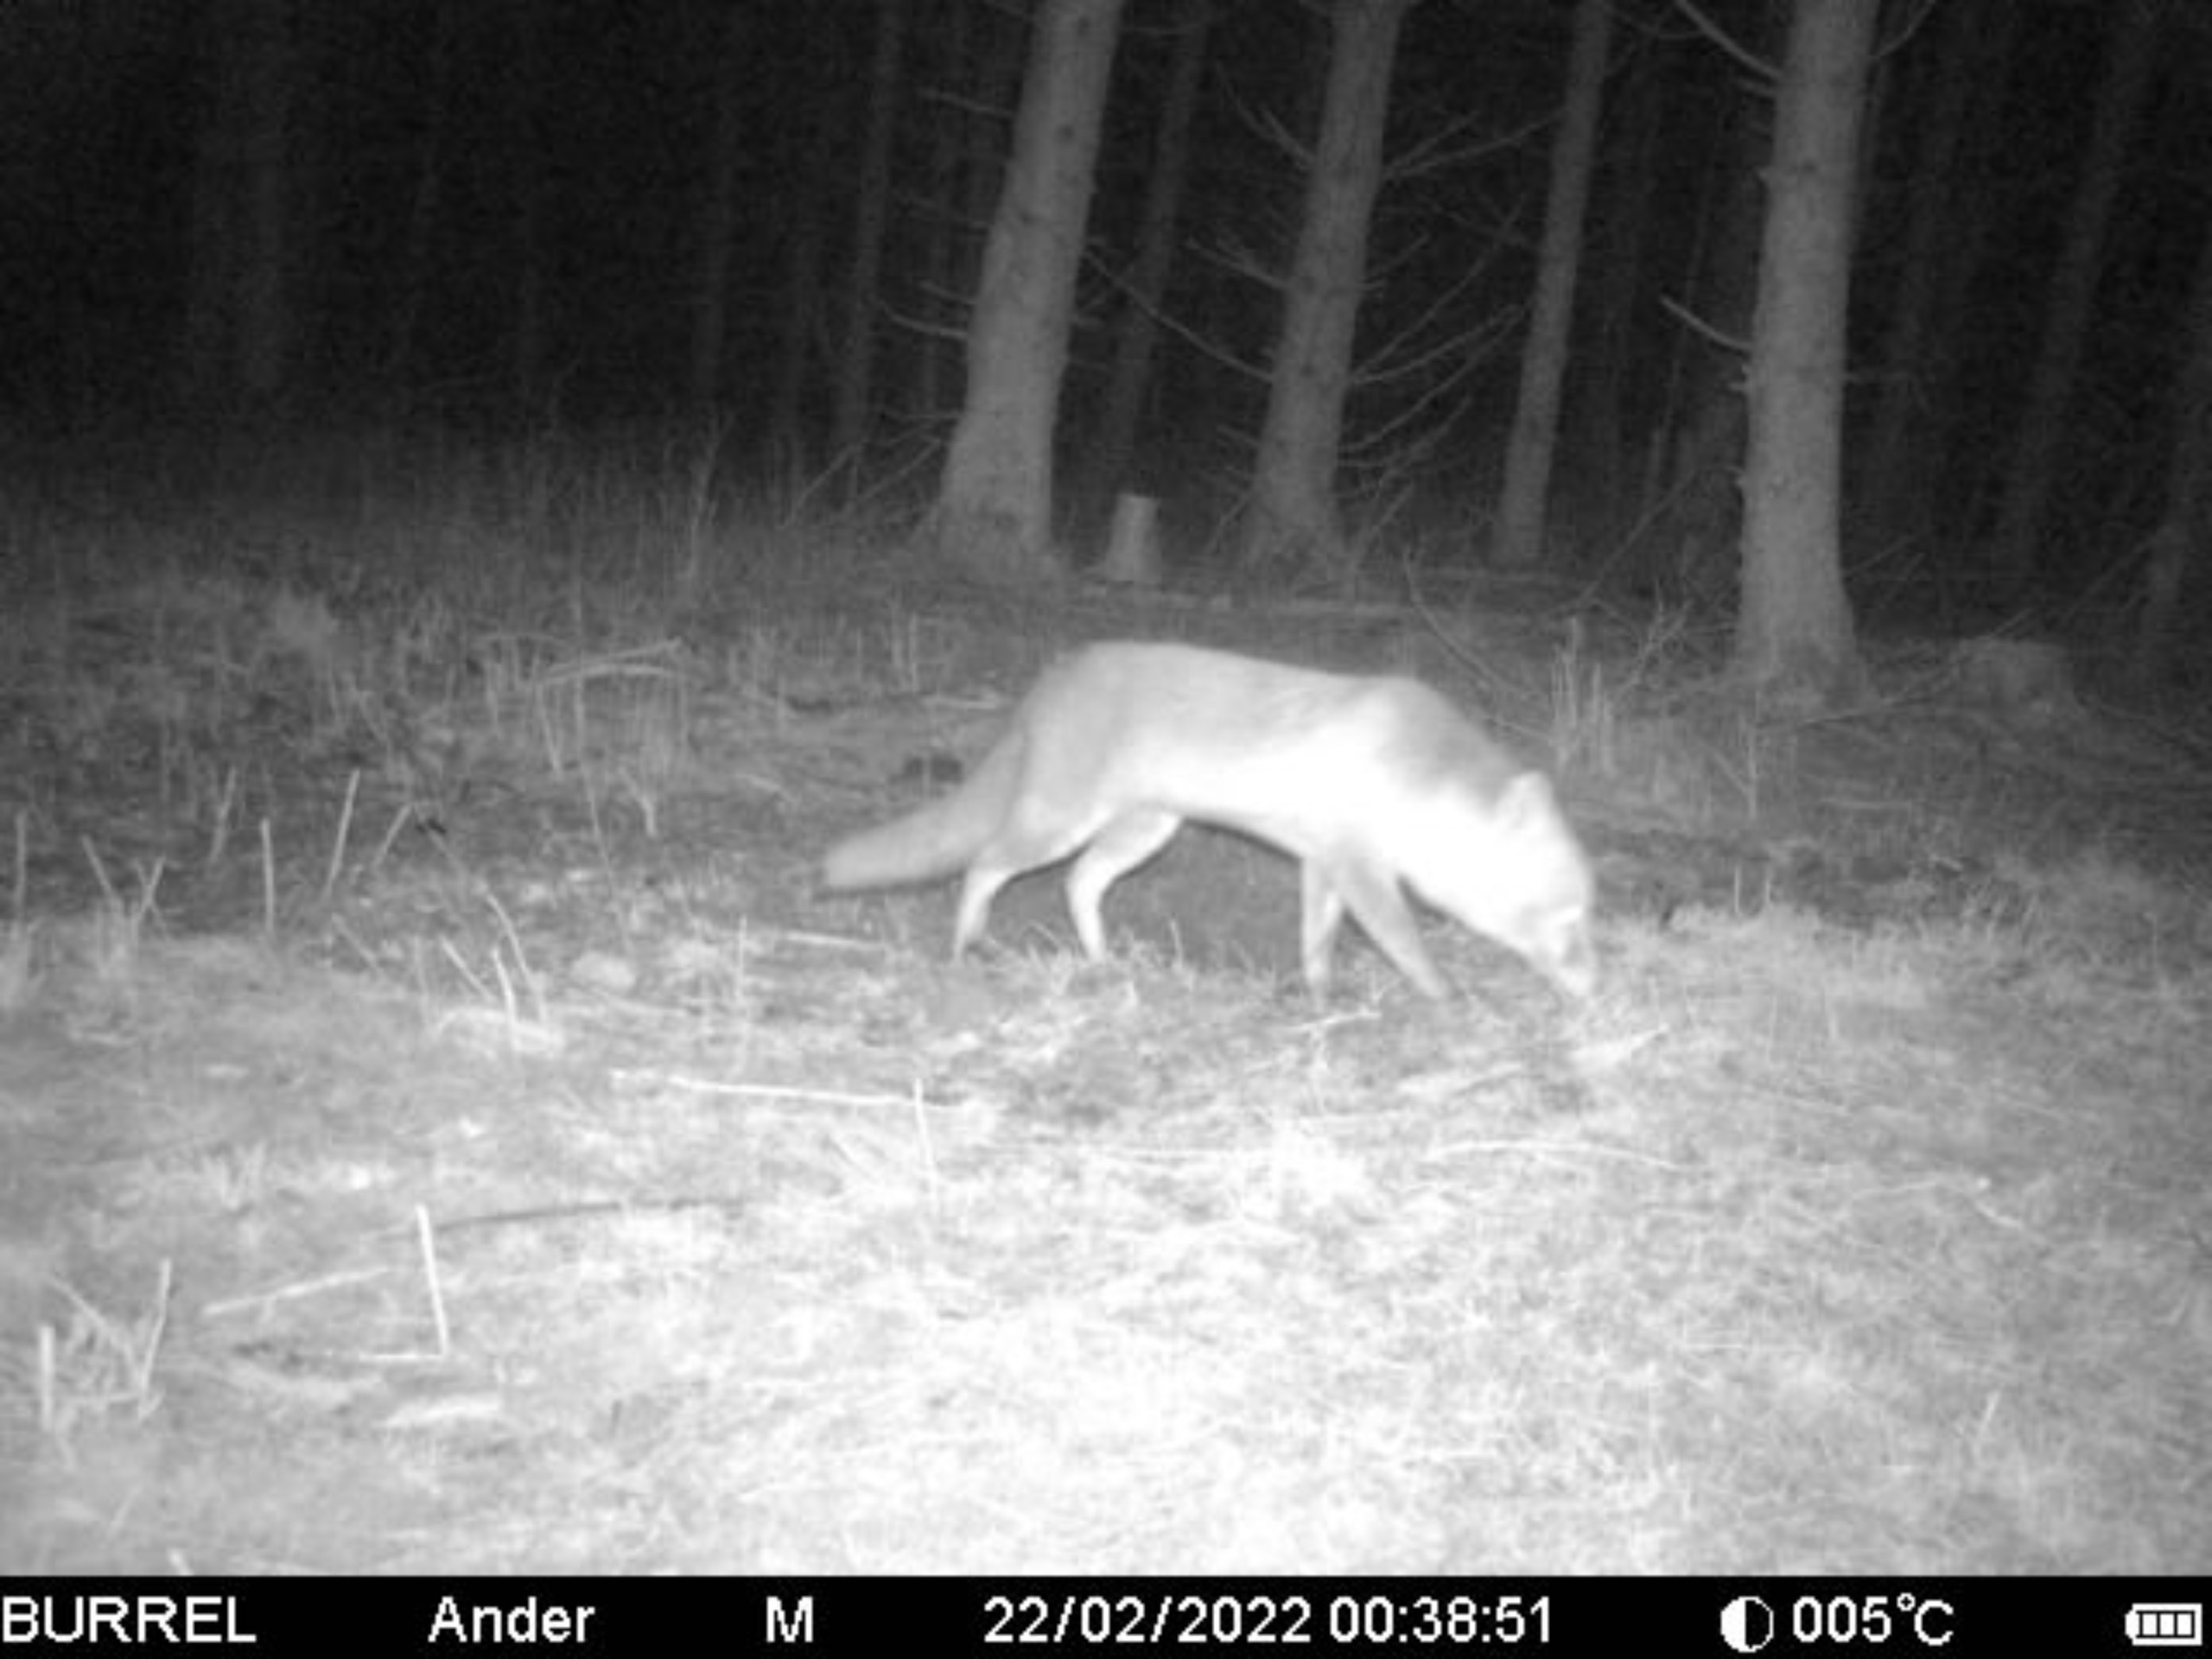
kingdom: Animalia
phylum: Chordata
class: Mammalia
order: Carnivora
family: Canidae
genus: Vulpes
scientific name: Vulpes vulpes
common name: Ræv
